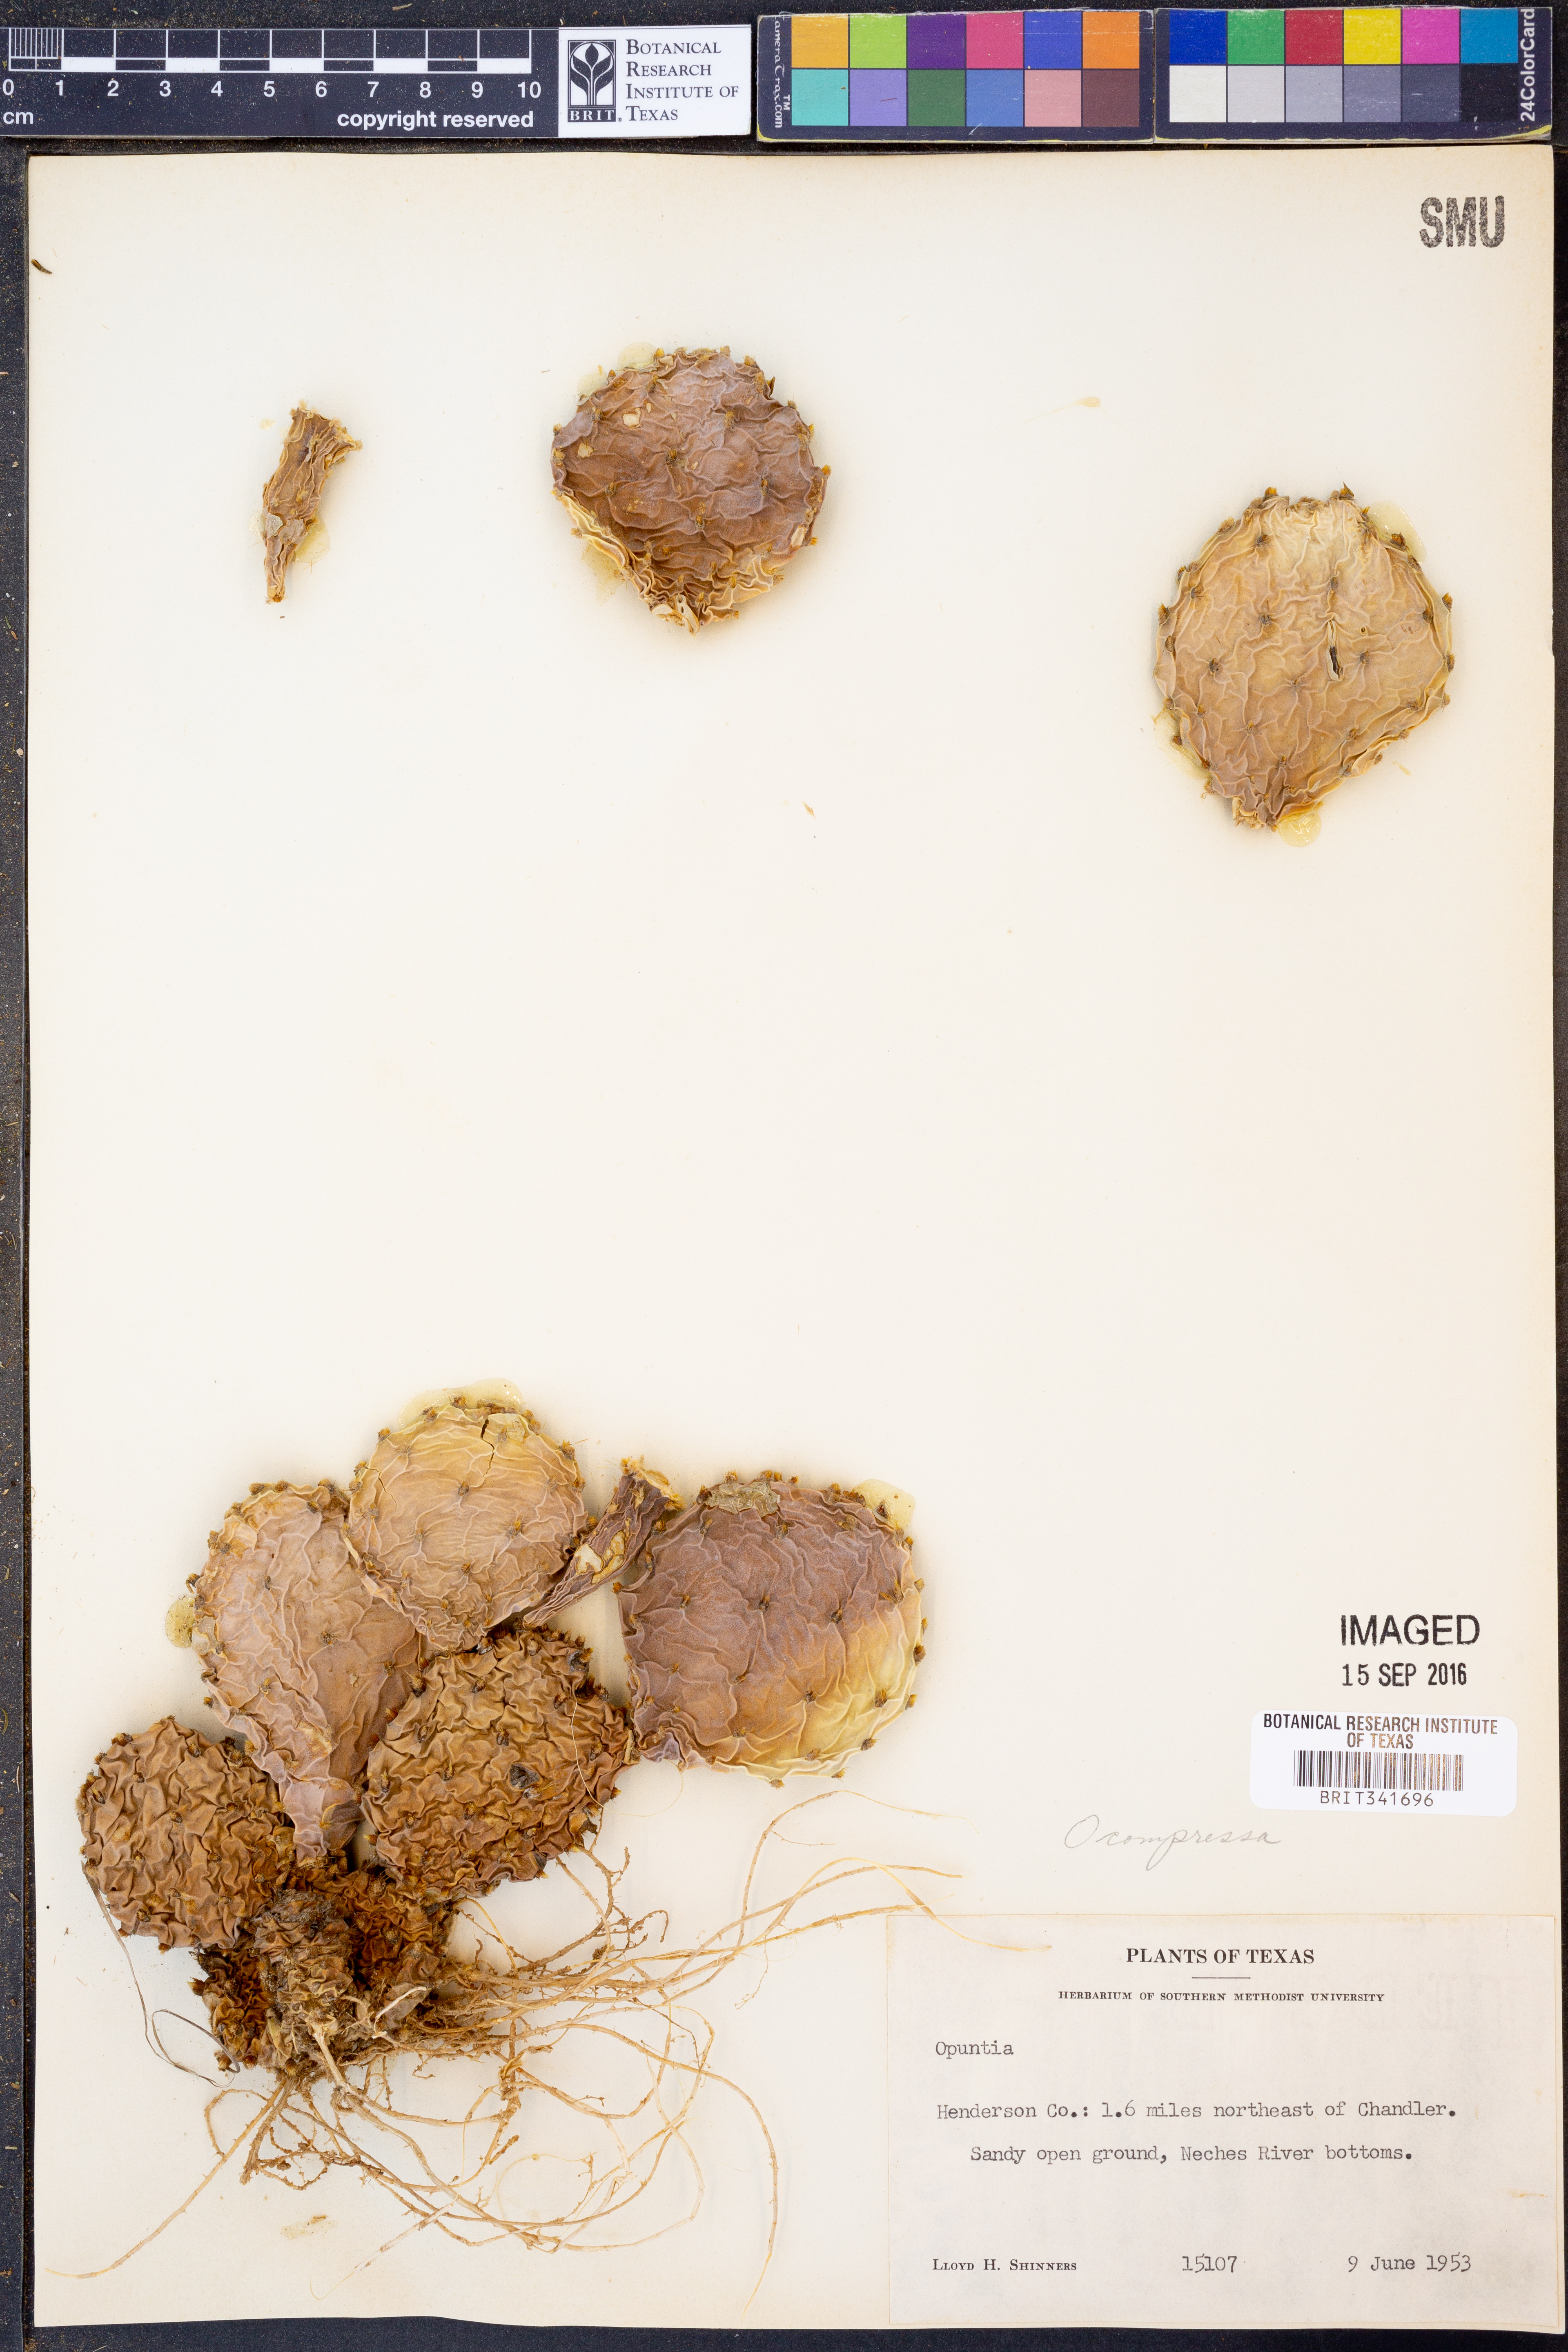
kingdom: Plantae
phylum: Tracheophyta
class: Magnoliopsida
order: Caryophyllales
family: Cactaceae
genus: Opuntia
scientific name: Opuntia macrorhiza
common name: Grassland pricklypear
